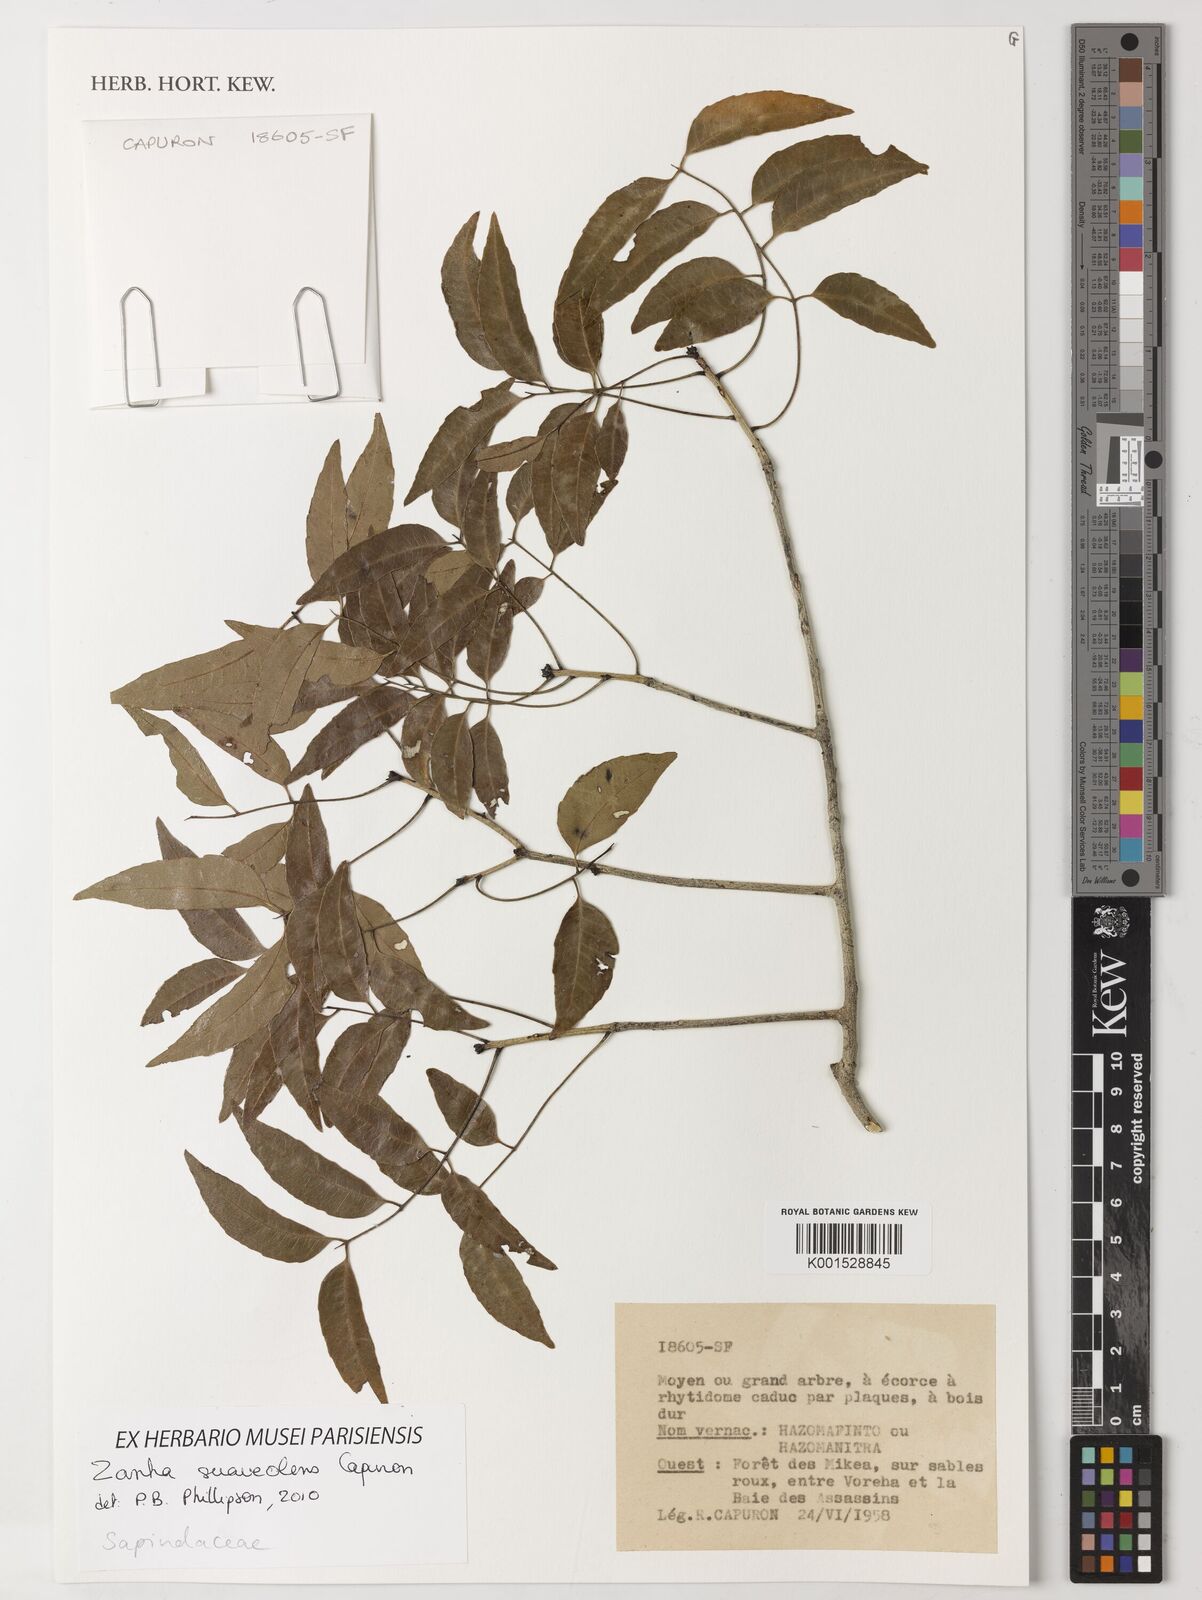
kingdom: Plantae
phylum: Tracheophyta
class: Magnoliopsida
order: Sapindales
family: Sapindaceae
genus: Zanha
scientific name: Zanha suaveolens
